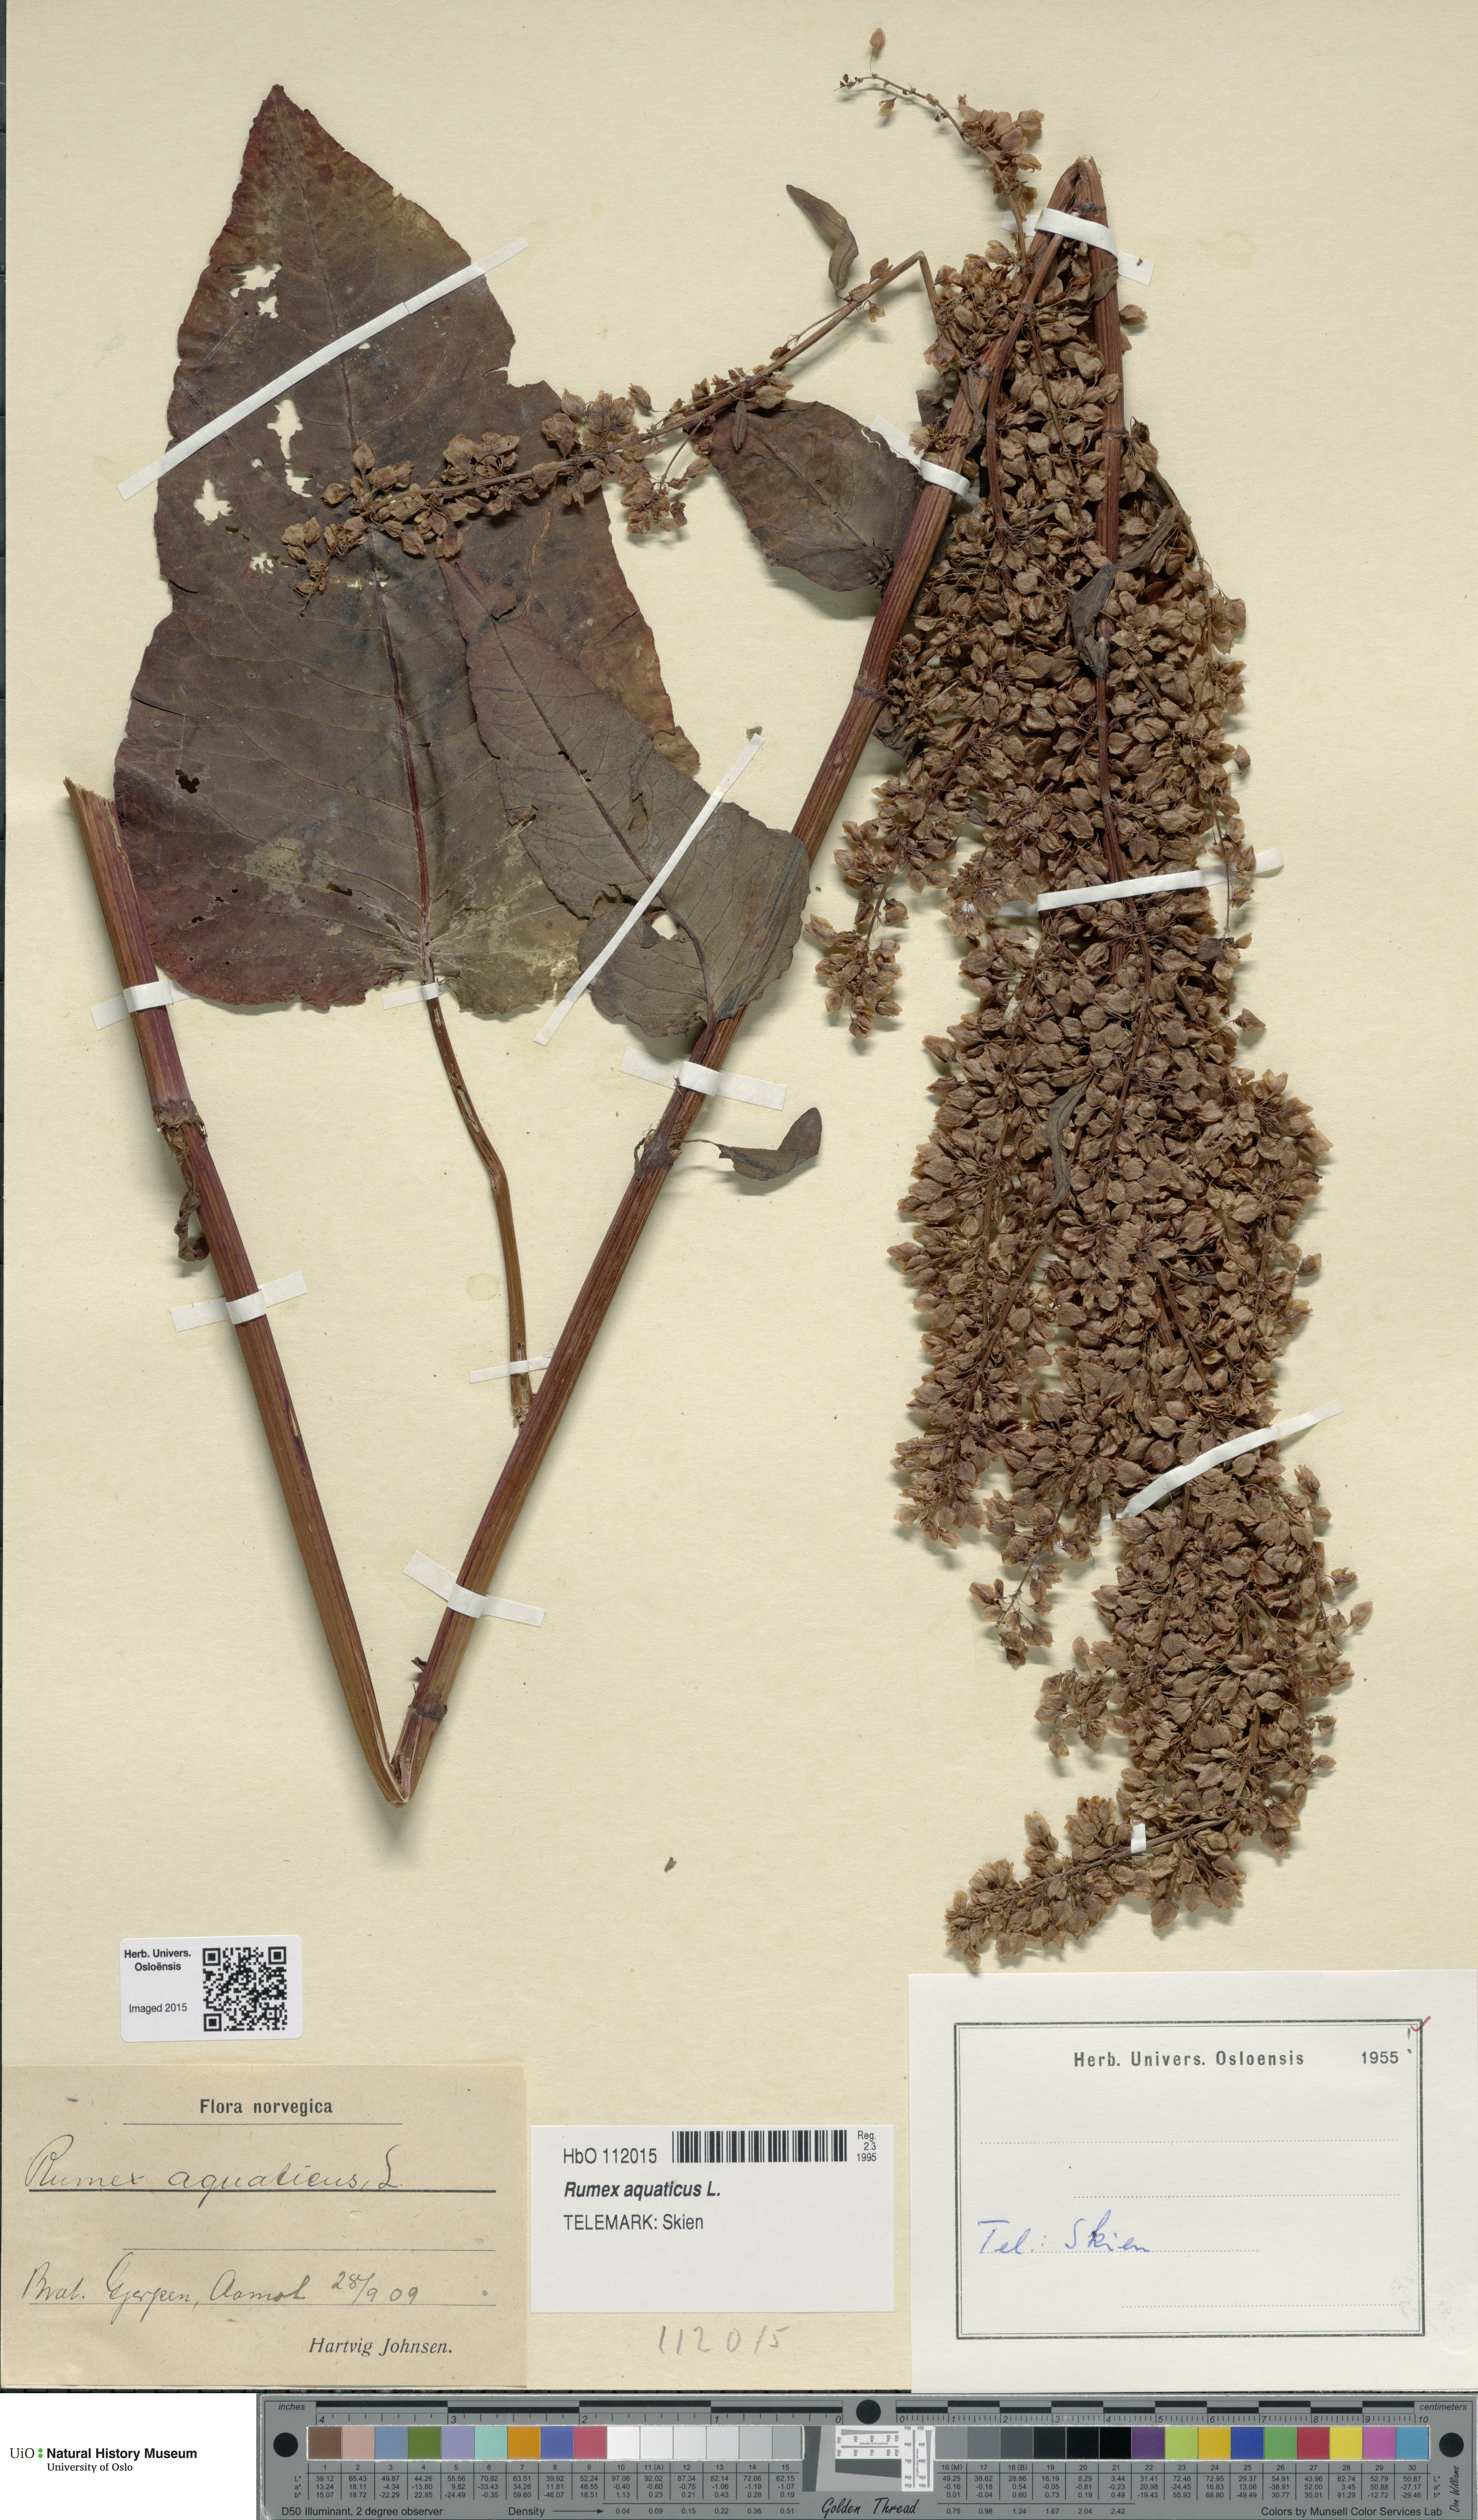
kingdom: Plantae
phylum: Tracheophyta
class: Magnoliopsida
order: Caryophyllales
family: Polygonaceae
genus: Rumex
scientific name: Rumex aquaticus
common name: Scottish dock
